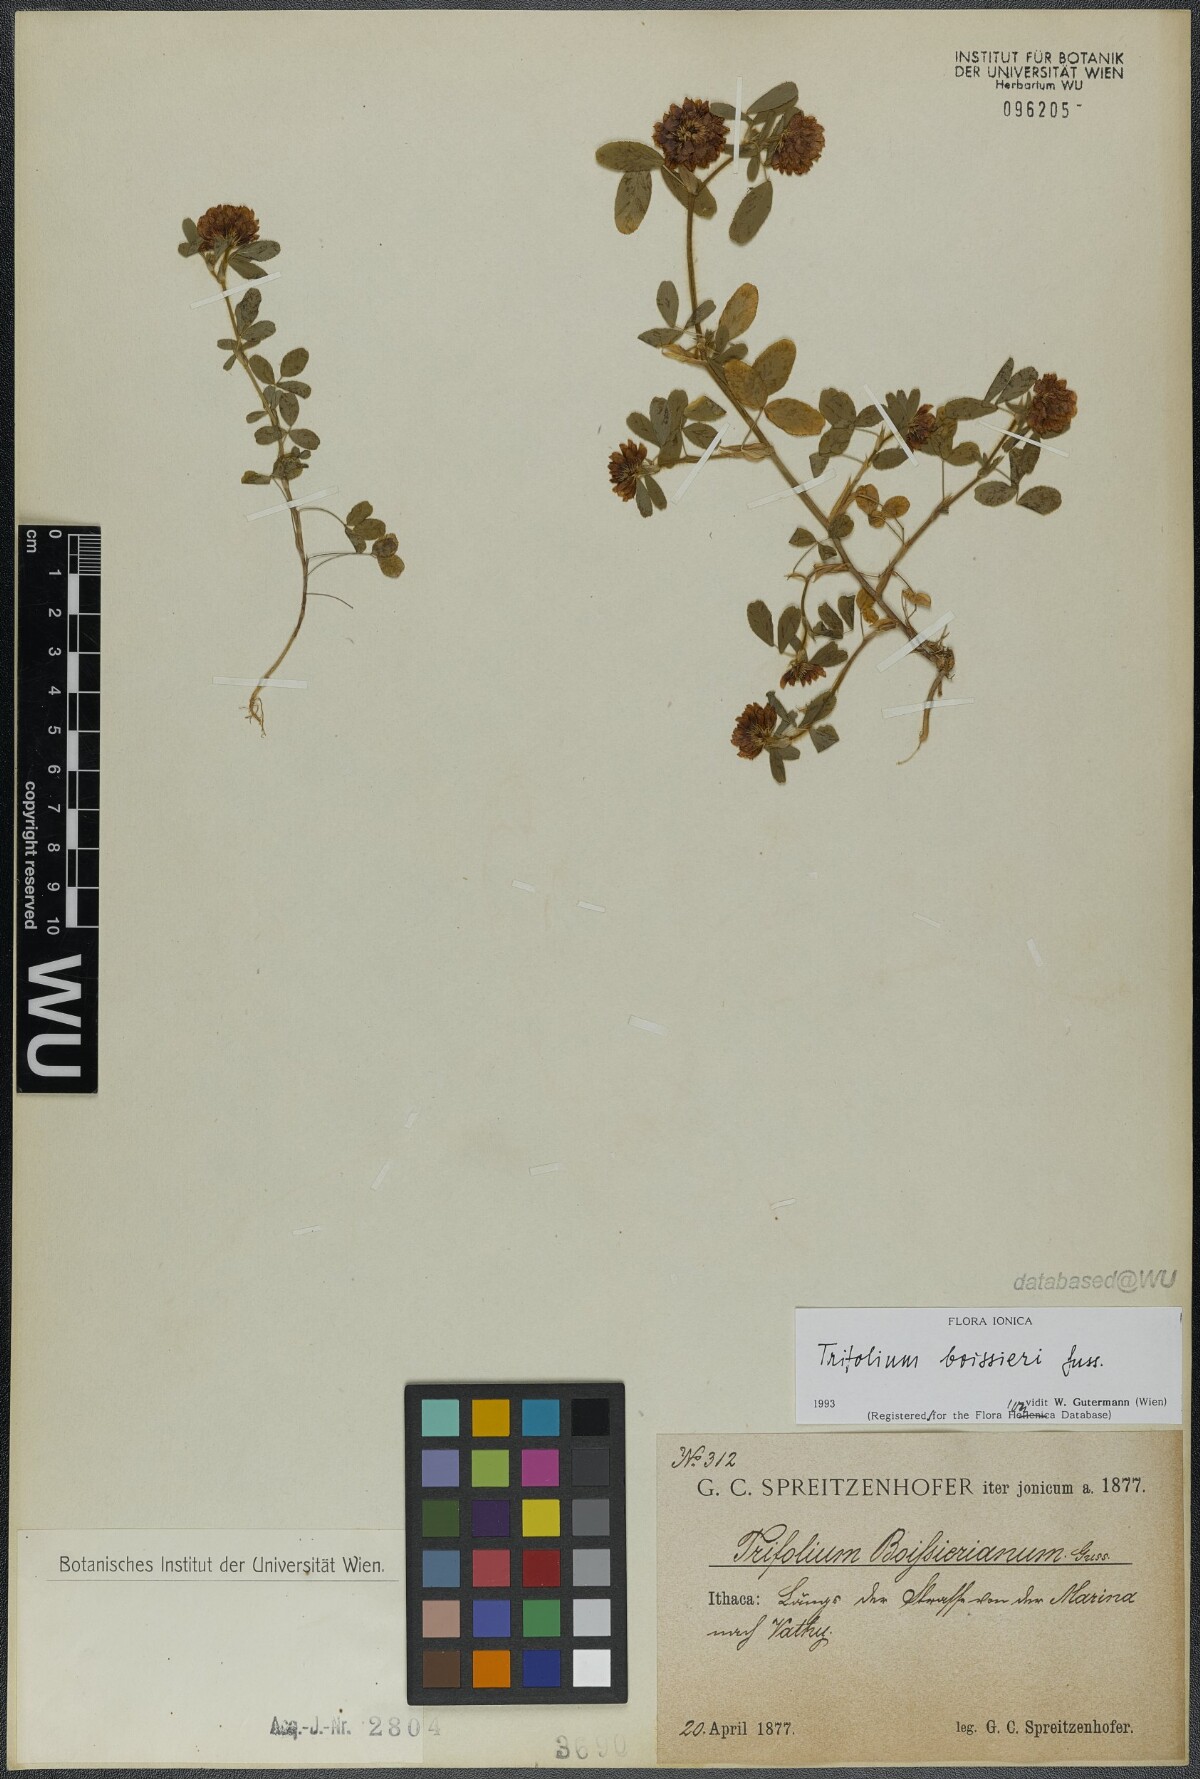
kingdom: Plantae
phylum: Tracheophyta
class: Magnoliopsida
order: Fabales
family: Fabaceae
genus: Trifolium
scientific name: Trifolium boissieri
